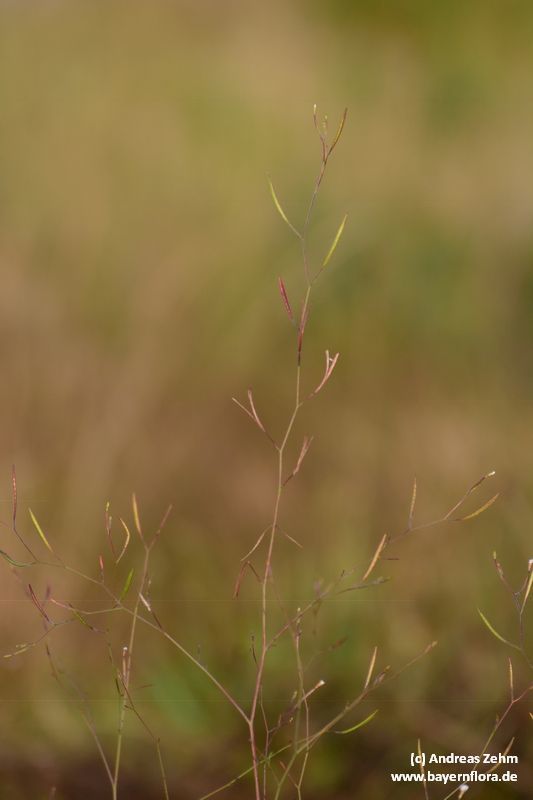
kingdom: Plantae
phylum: Tracheophyta
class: Magnoliopsida
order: Myrtales
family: Onagraceae
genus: Epilobium
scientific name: Epilobium brachycarpum
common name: Annual willowherb
